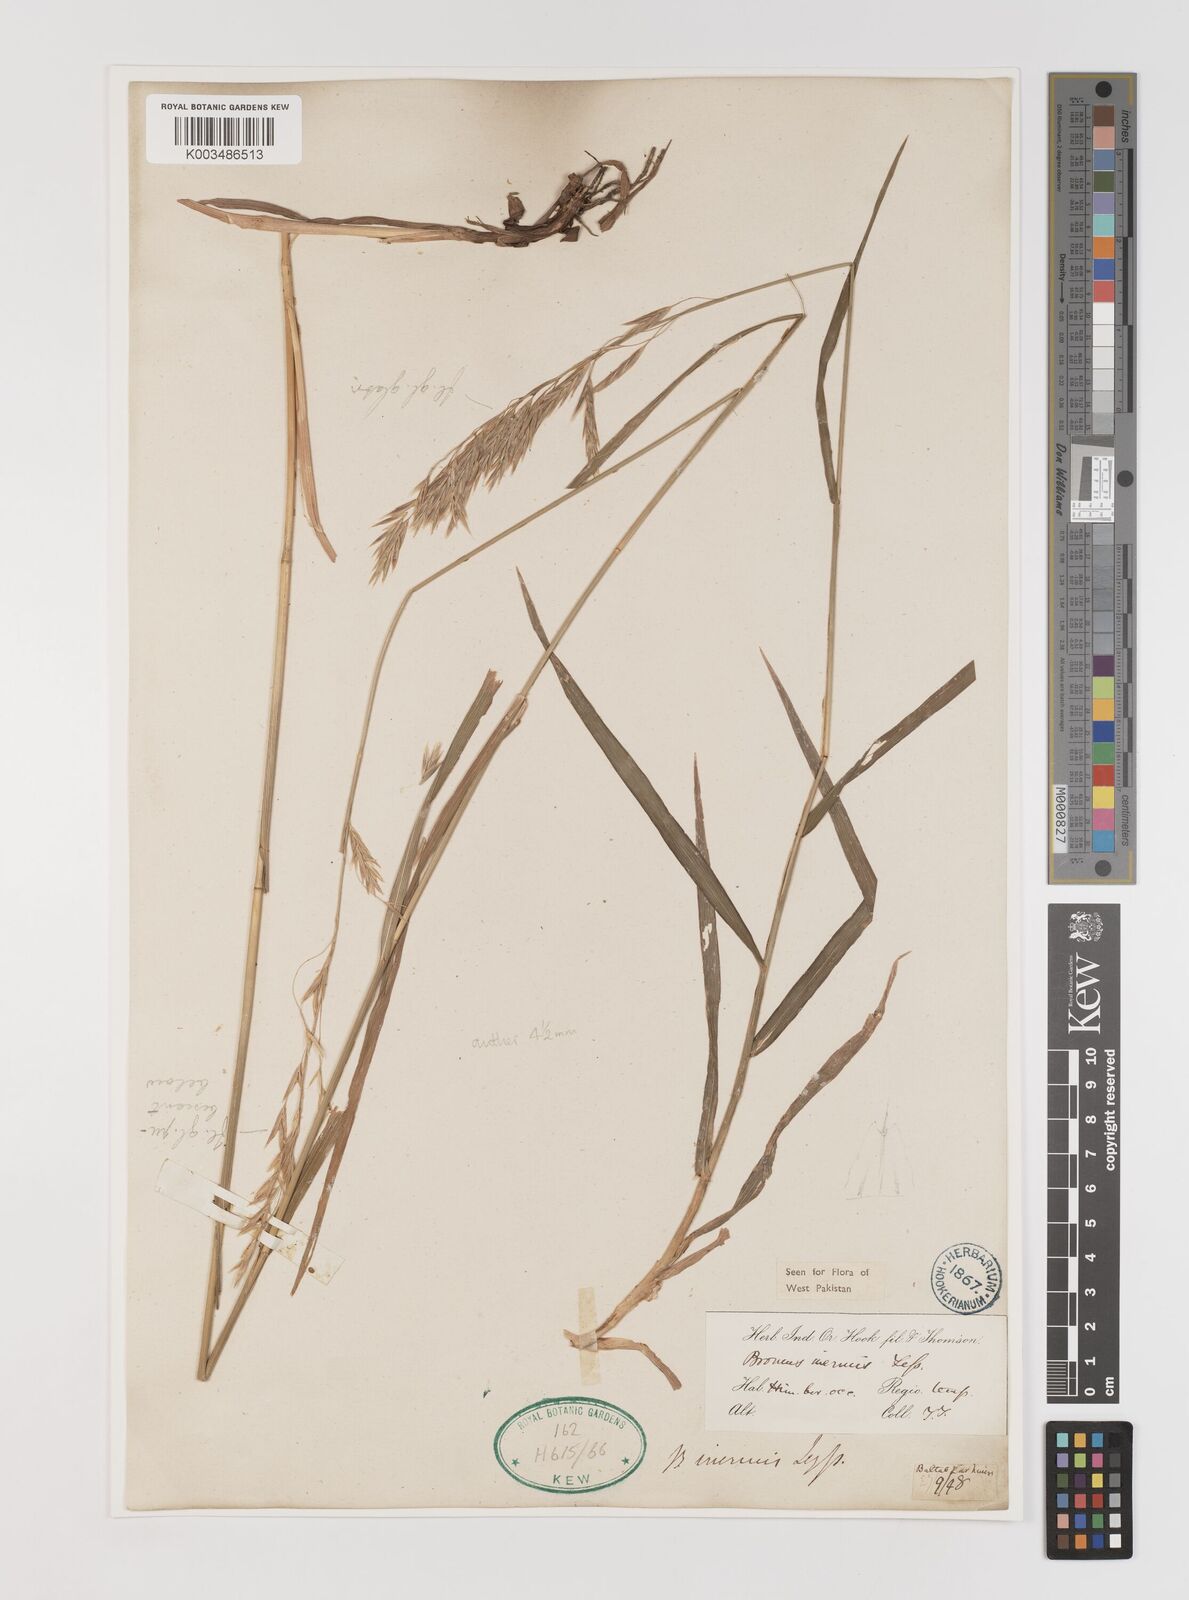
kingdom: Plantae
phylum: Tracheophyta
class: Liliopsida
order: Poales
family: Poaceae
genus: Bromus
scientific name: Bromus inermis
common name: Smooth brome
